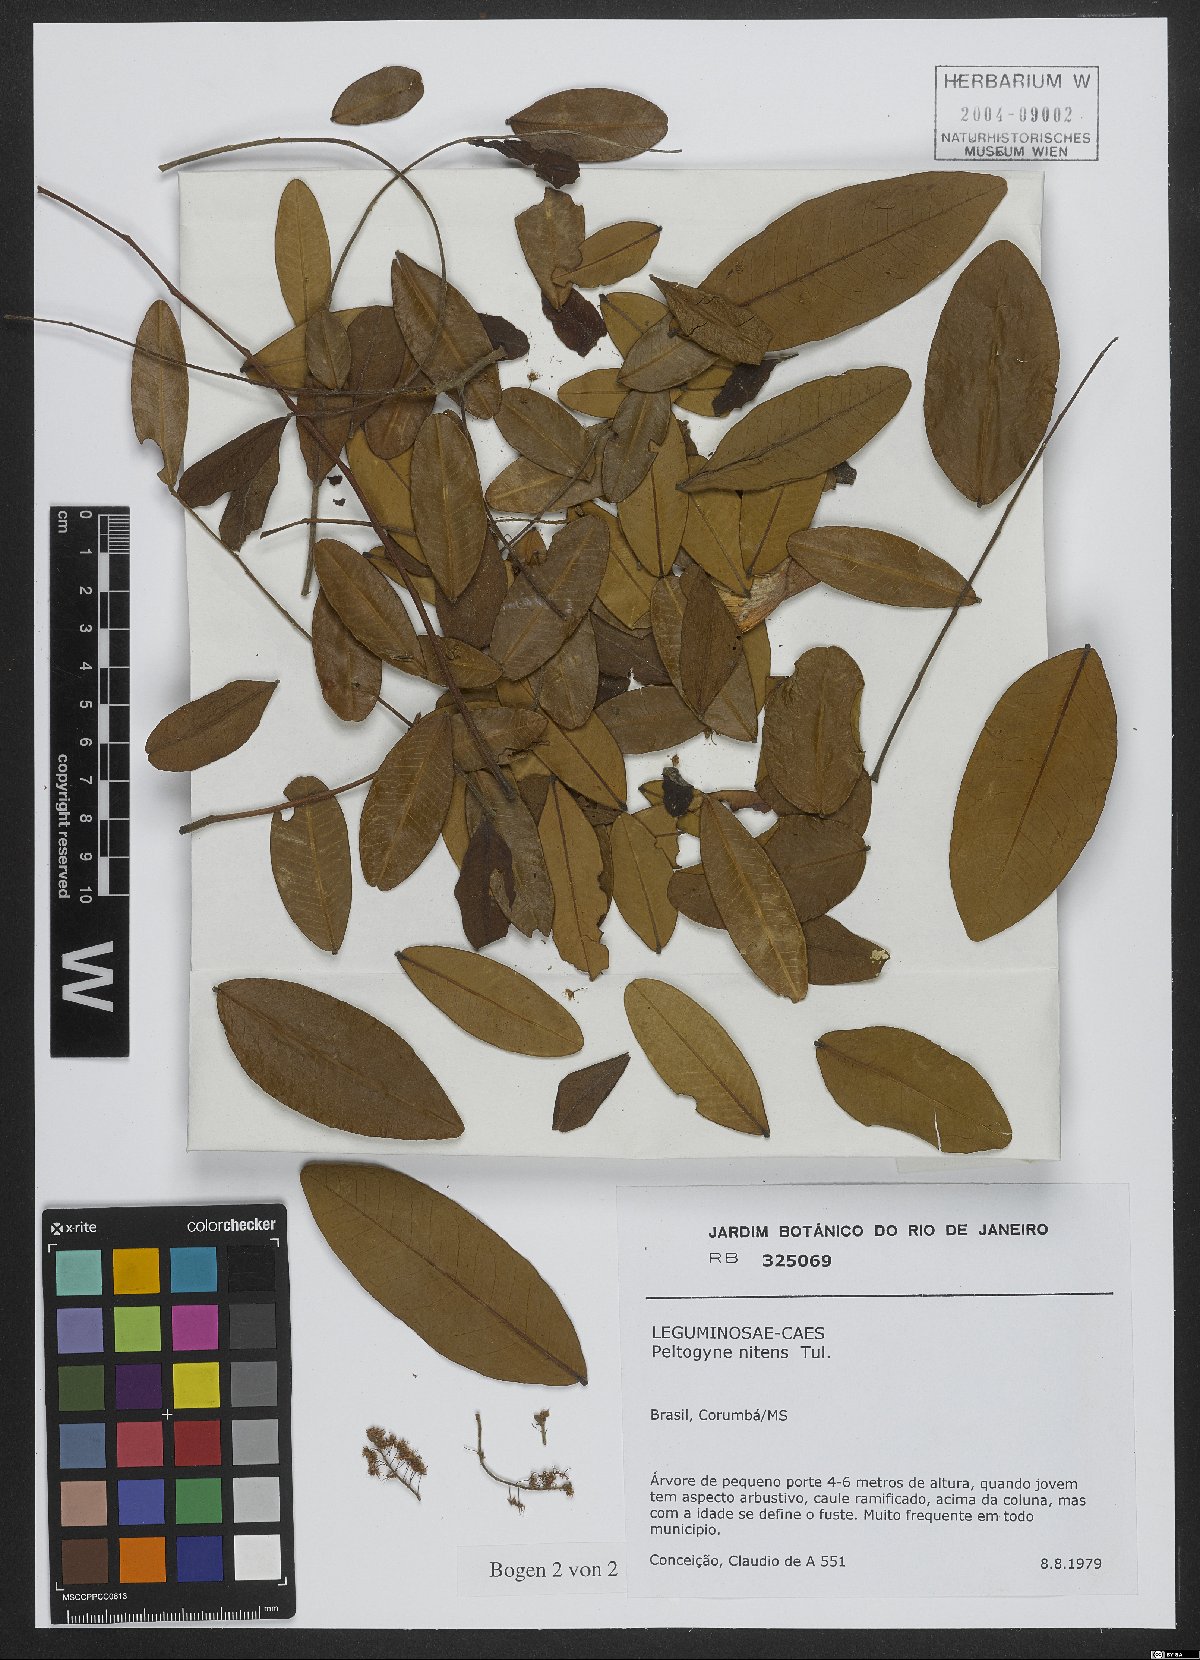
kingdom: Plantae
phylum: Tracheophyta
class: Magnoliopsida
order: Fabales
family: Fabaceae
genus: Pterogyne
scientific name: Pterogyne nitens
